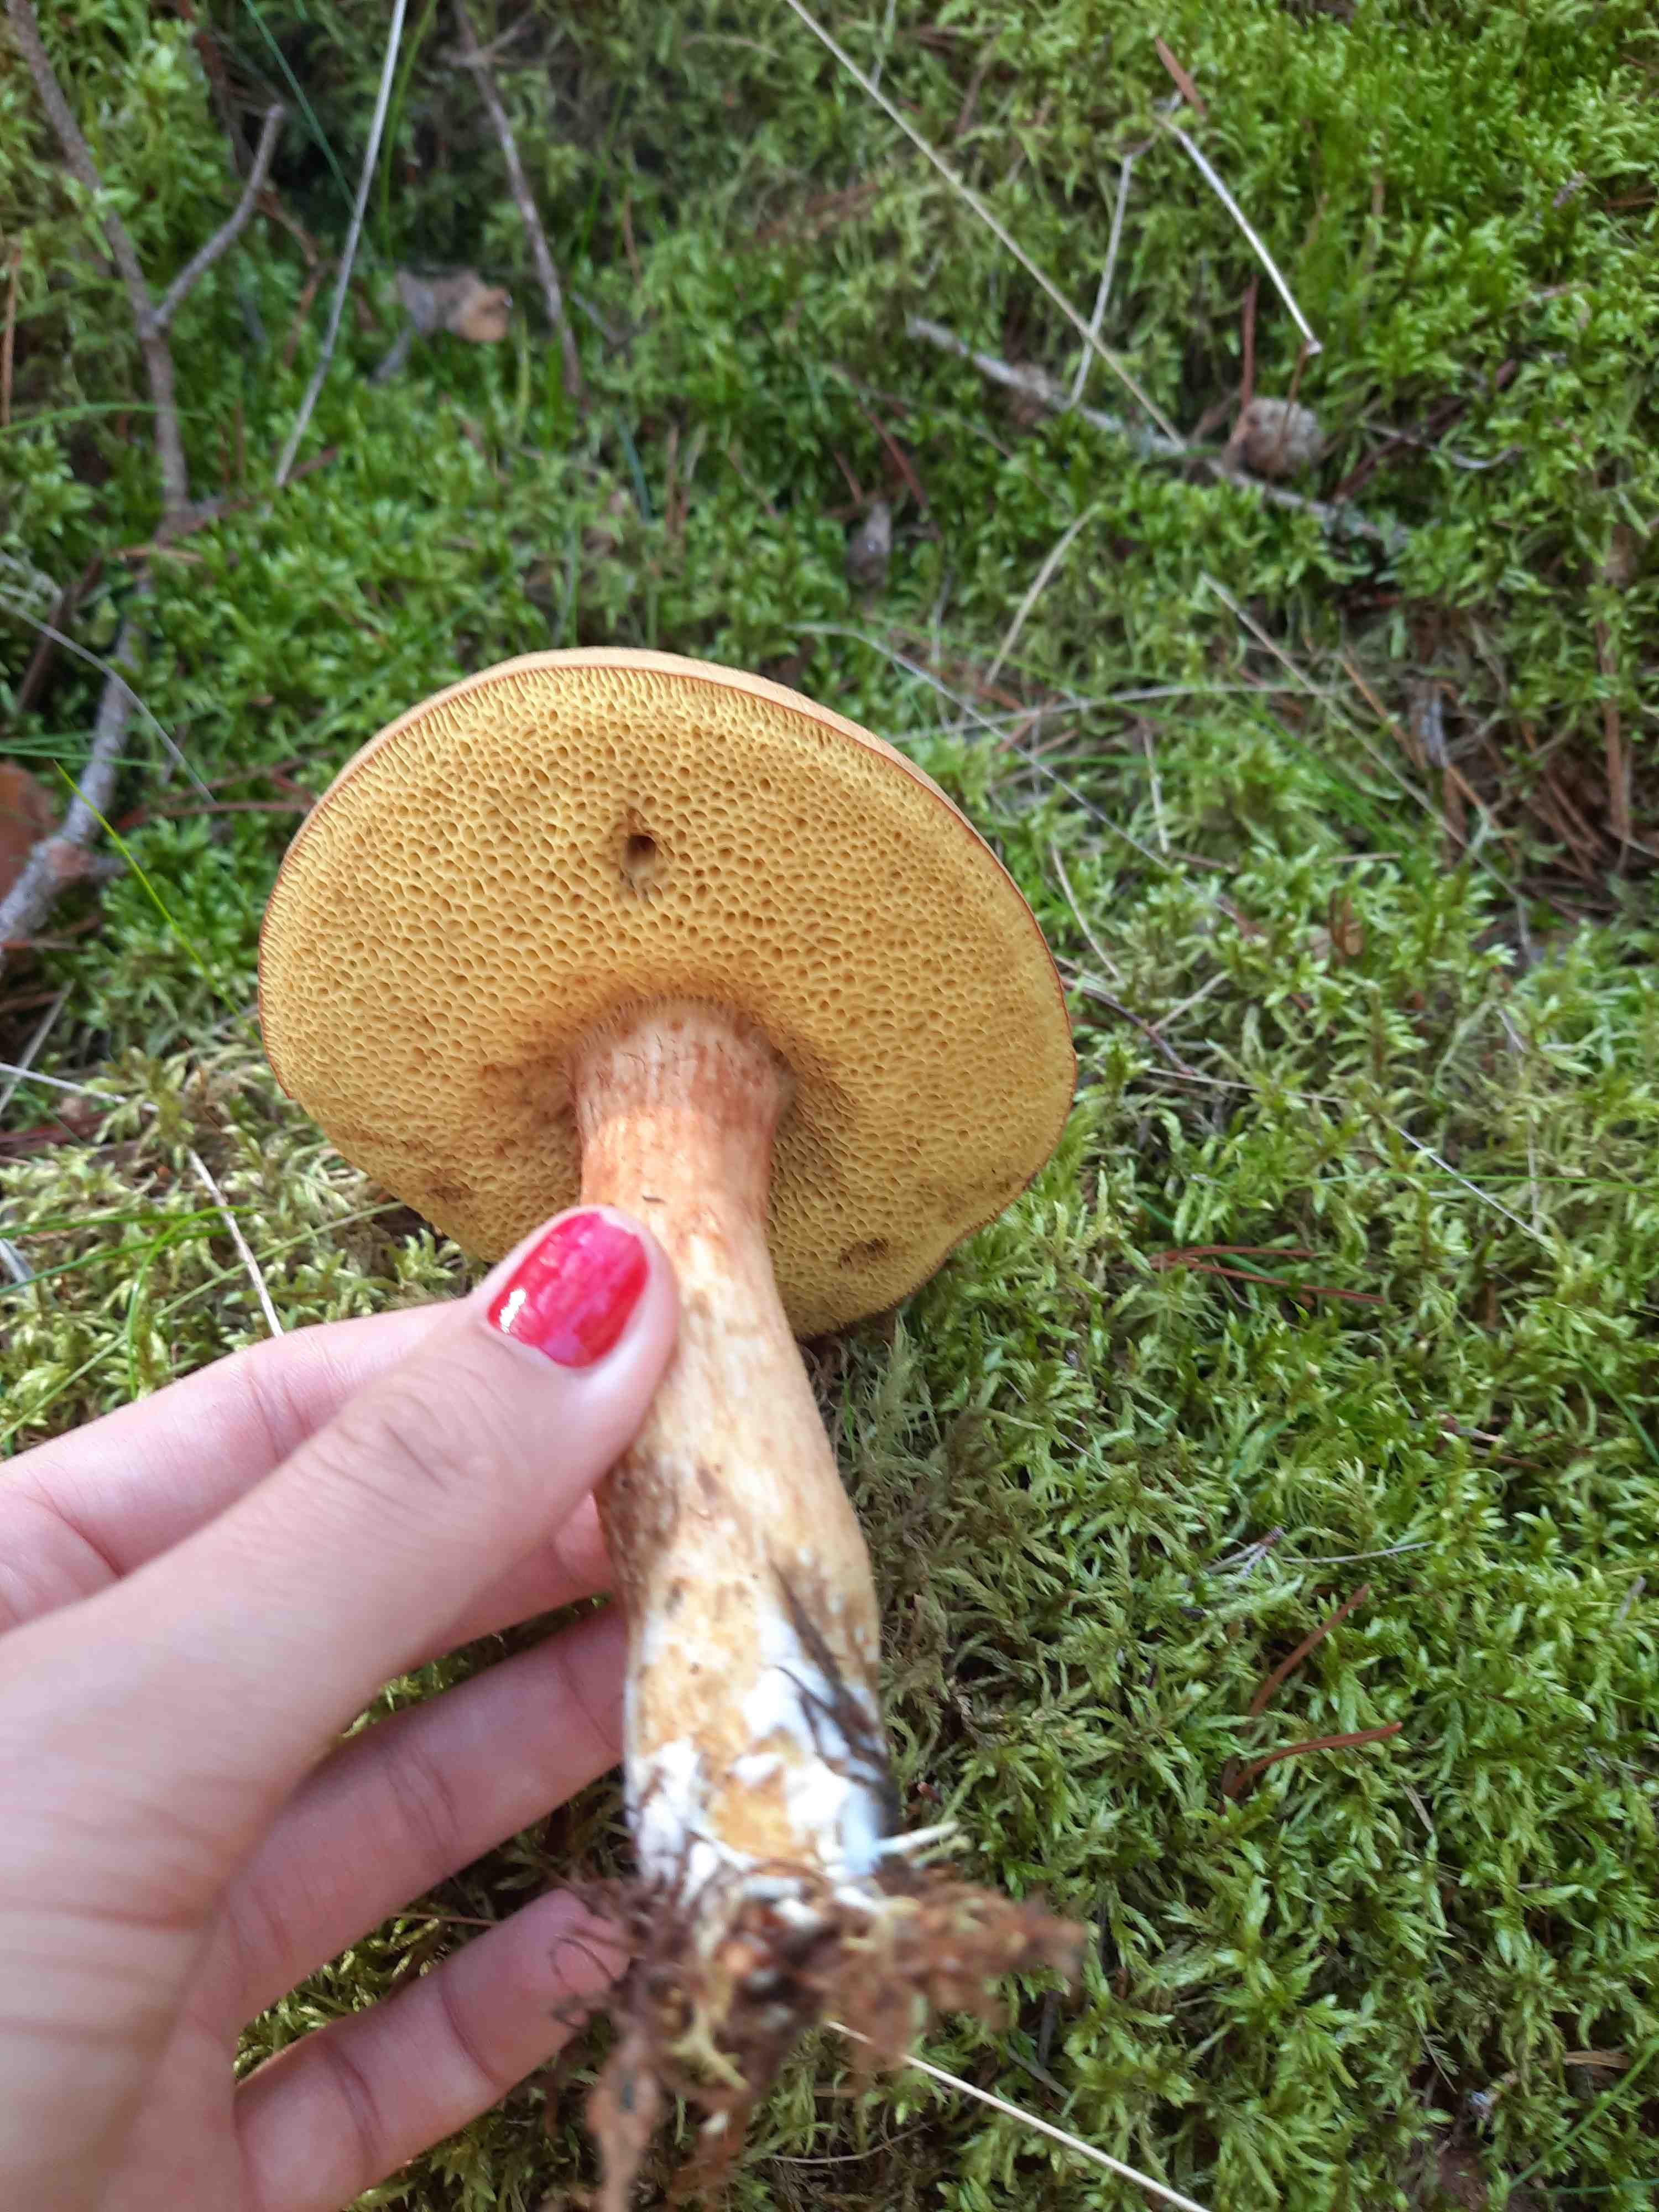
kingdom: Fungi
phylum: Basidiomycota
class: Agaricomycetes
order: Boletales
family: Boletaceae
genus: Xerocomus
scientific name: Xerocomus ferrugineus
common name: vaskeskinds-rørhat
